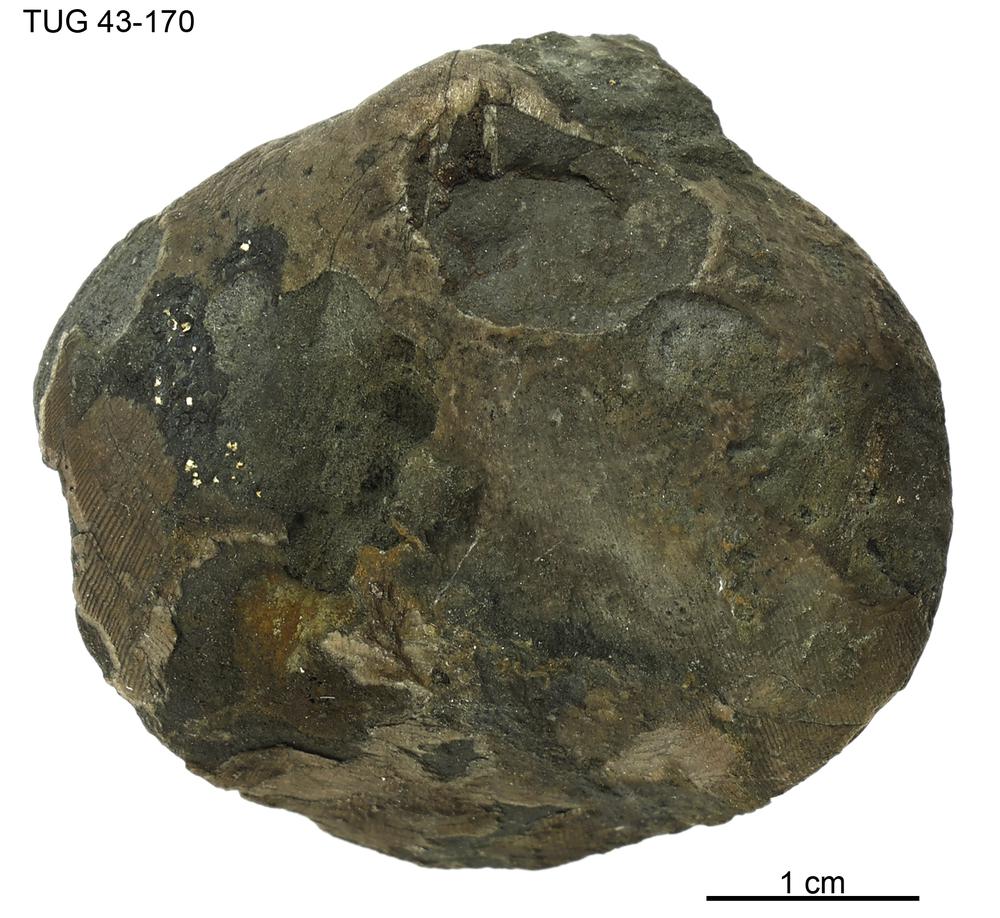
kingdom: Animalia
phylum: Brachiopoda
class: Rhynchonellata
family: Porambonitidae
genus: Porambonites
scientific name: Porambonites
